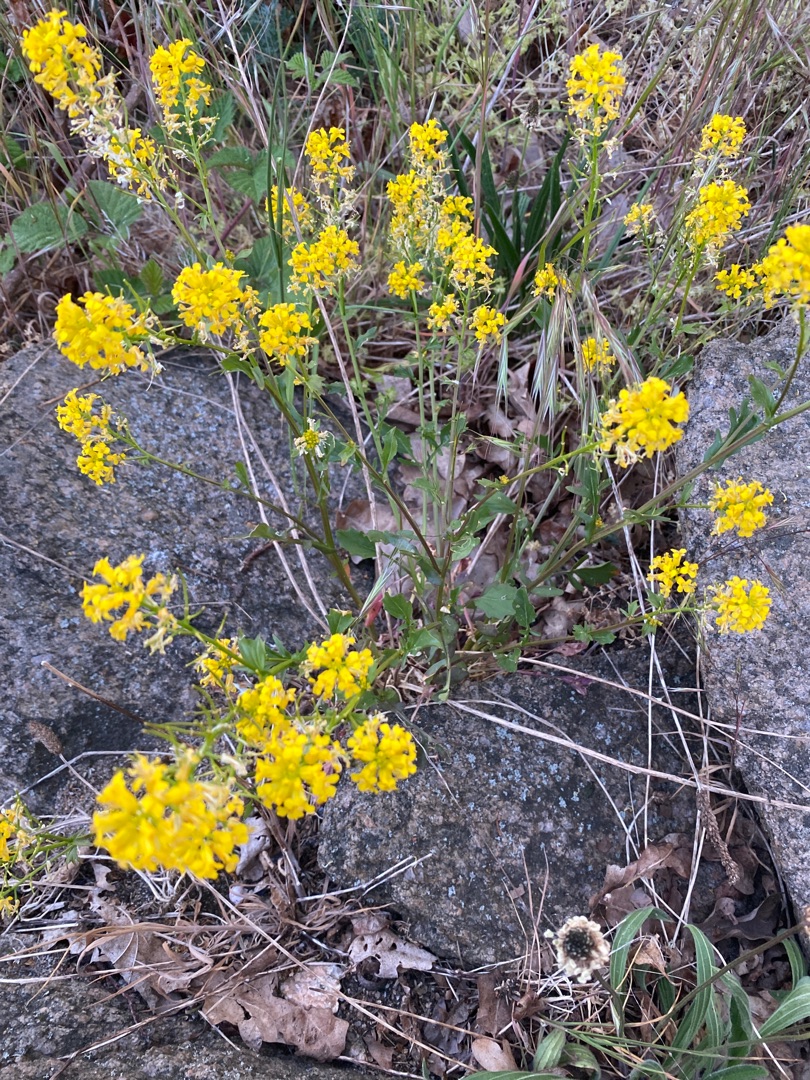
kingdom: Plantae
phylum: Tracheophyta
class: Magnoliopsida
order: Brassicales
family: Brassicaceae
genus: Barbarea
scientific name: Barbarea vulgaris
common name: Udspærret vinterkarse
